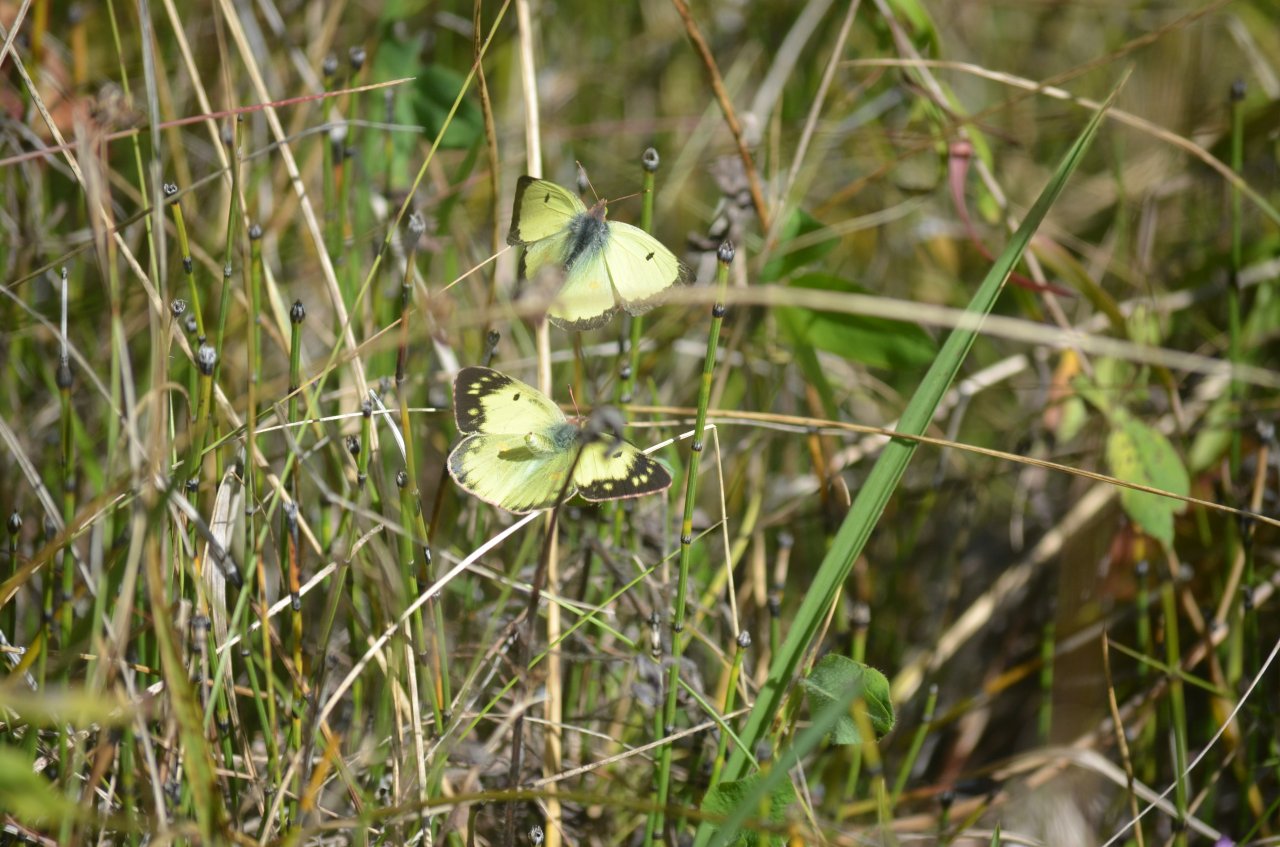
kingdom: Animalia
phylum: Arthropoda
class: Insecta
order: Lepidoptera
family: Pieridae
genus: Colias
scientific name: Colias philodice
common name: Clouded Sulphur
